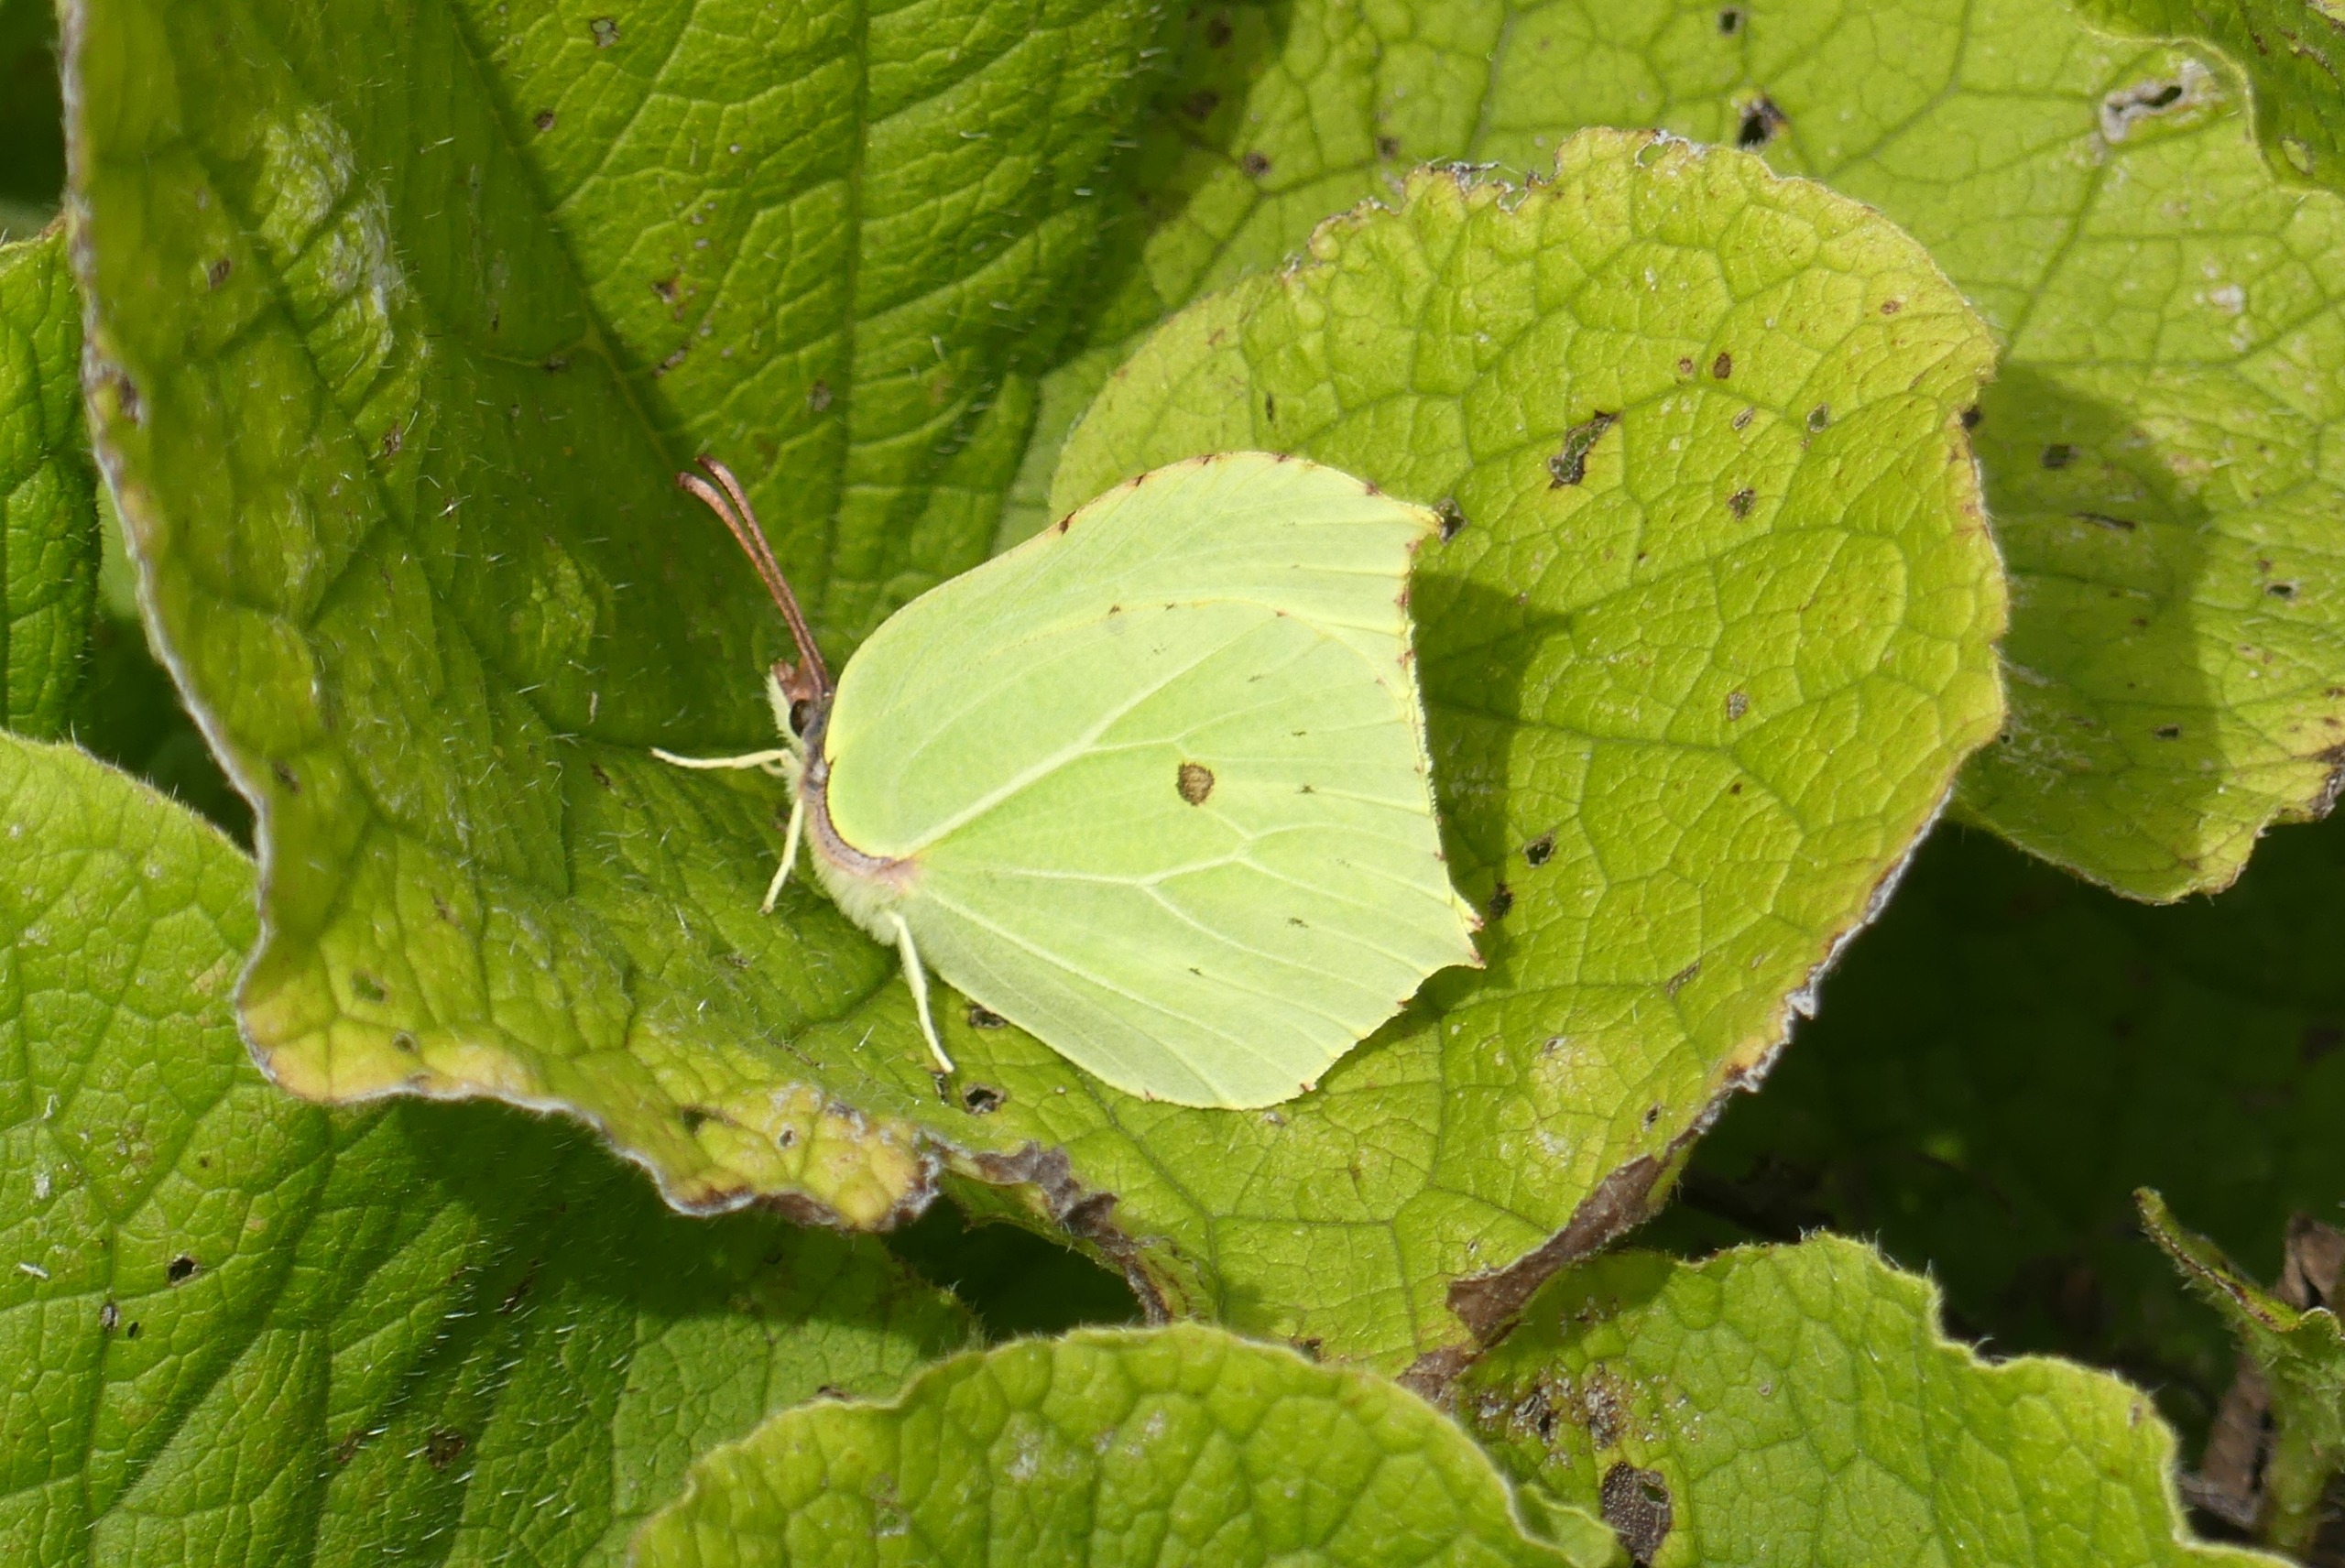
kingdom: Animalia
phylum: Arthropoda
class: Insecta
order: Lepidoptera
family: Pieridae
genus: Gonepteryx
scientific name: Gonepteryx rhamni
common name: Citronsommerfugl
